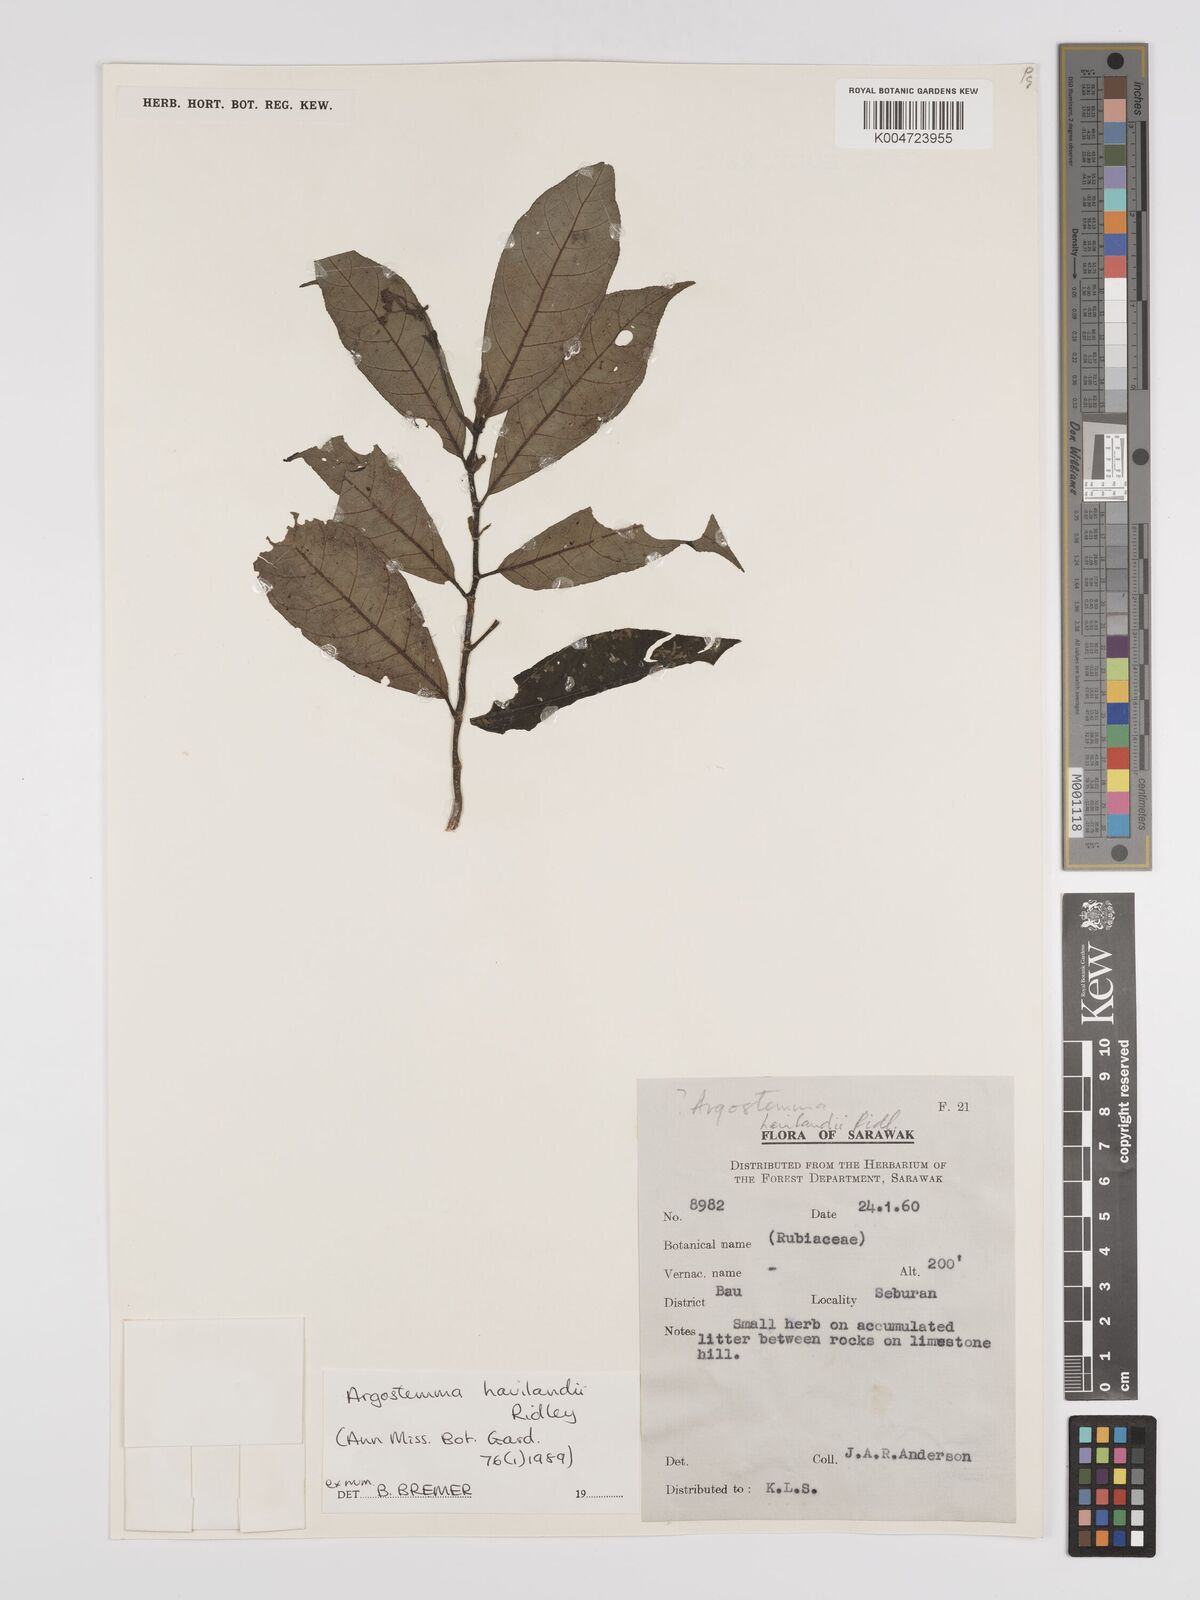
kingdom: Plantae
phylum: Tracheophyta
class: Magnoliopsida
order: Gentianales
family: Rubiaceae
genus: Argostemma
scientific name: Argostemma havilandii
